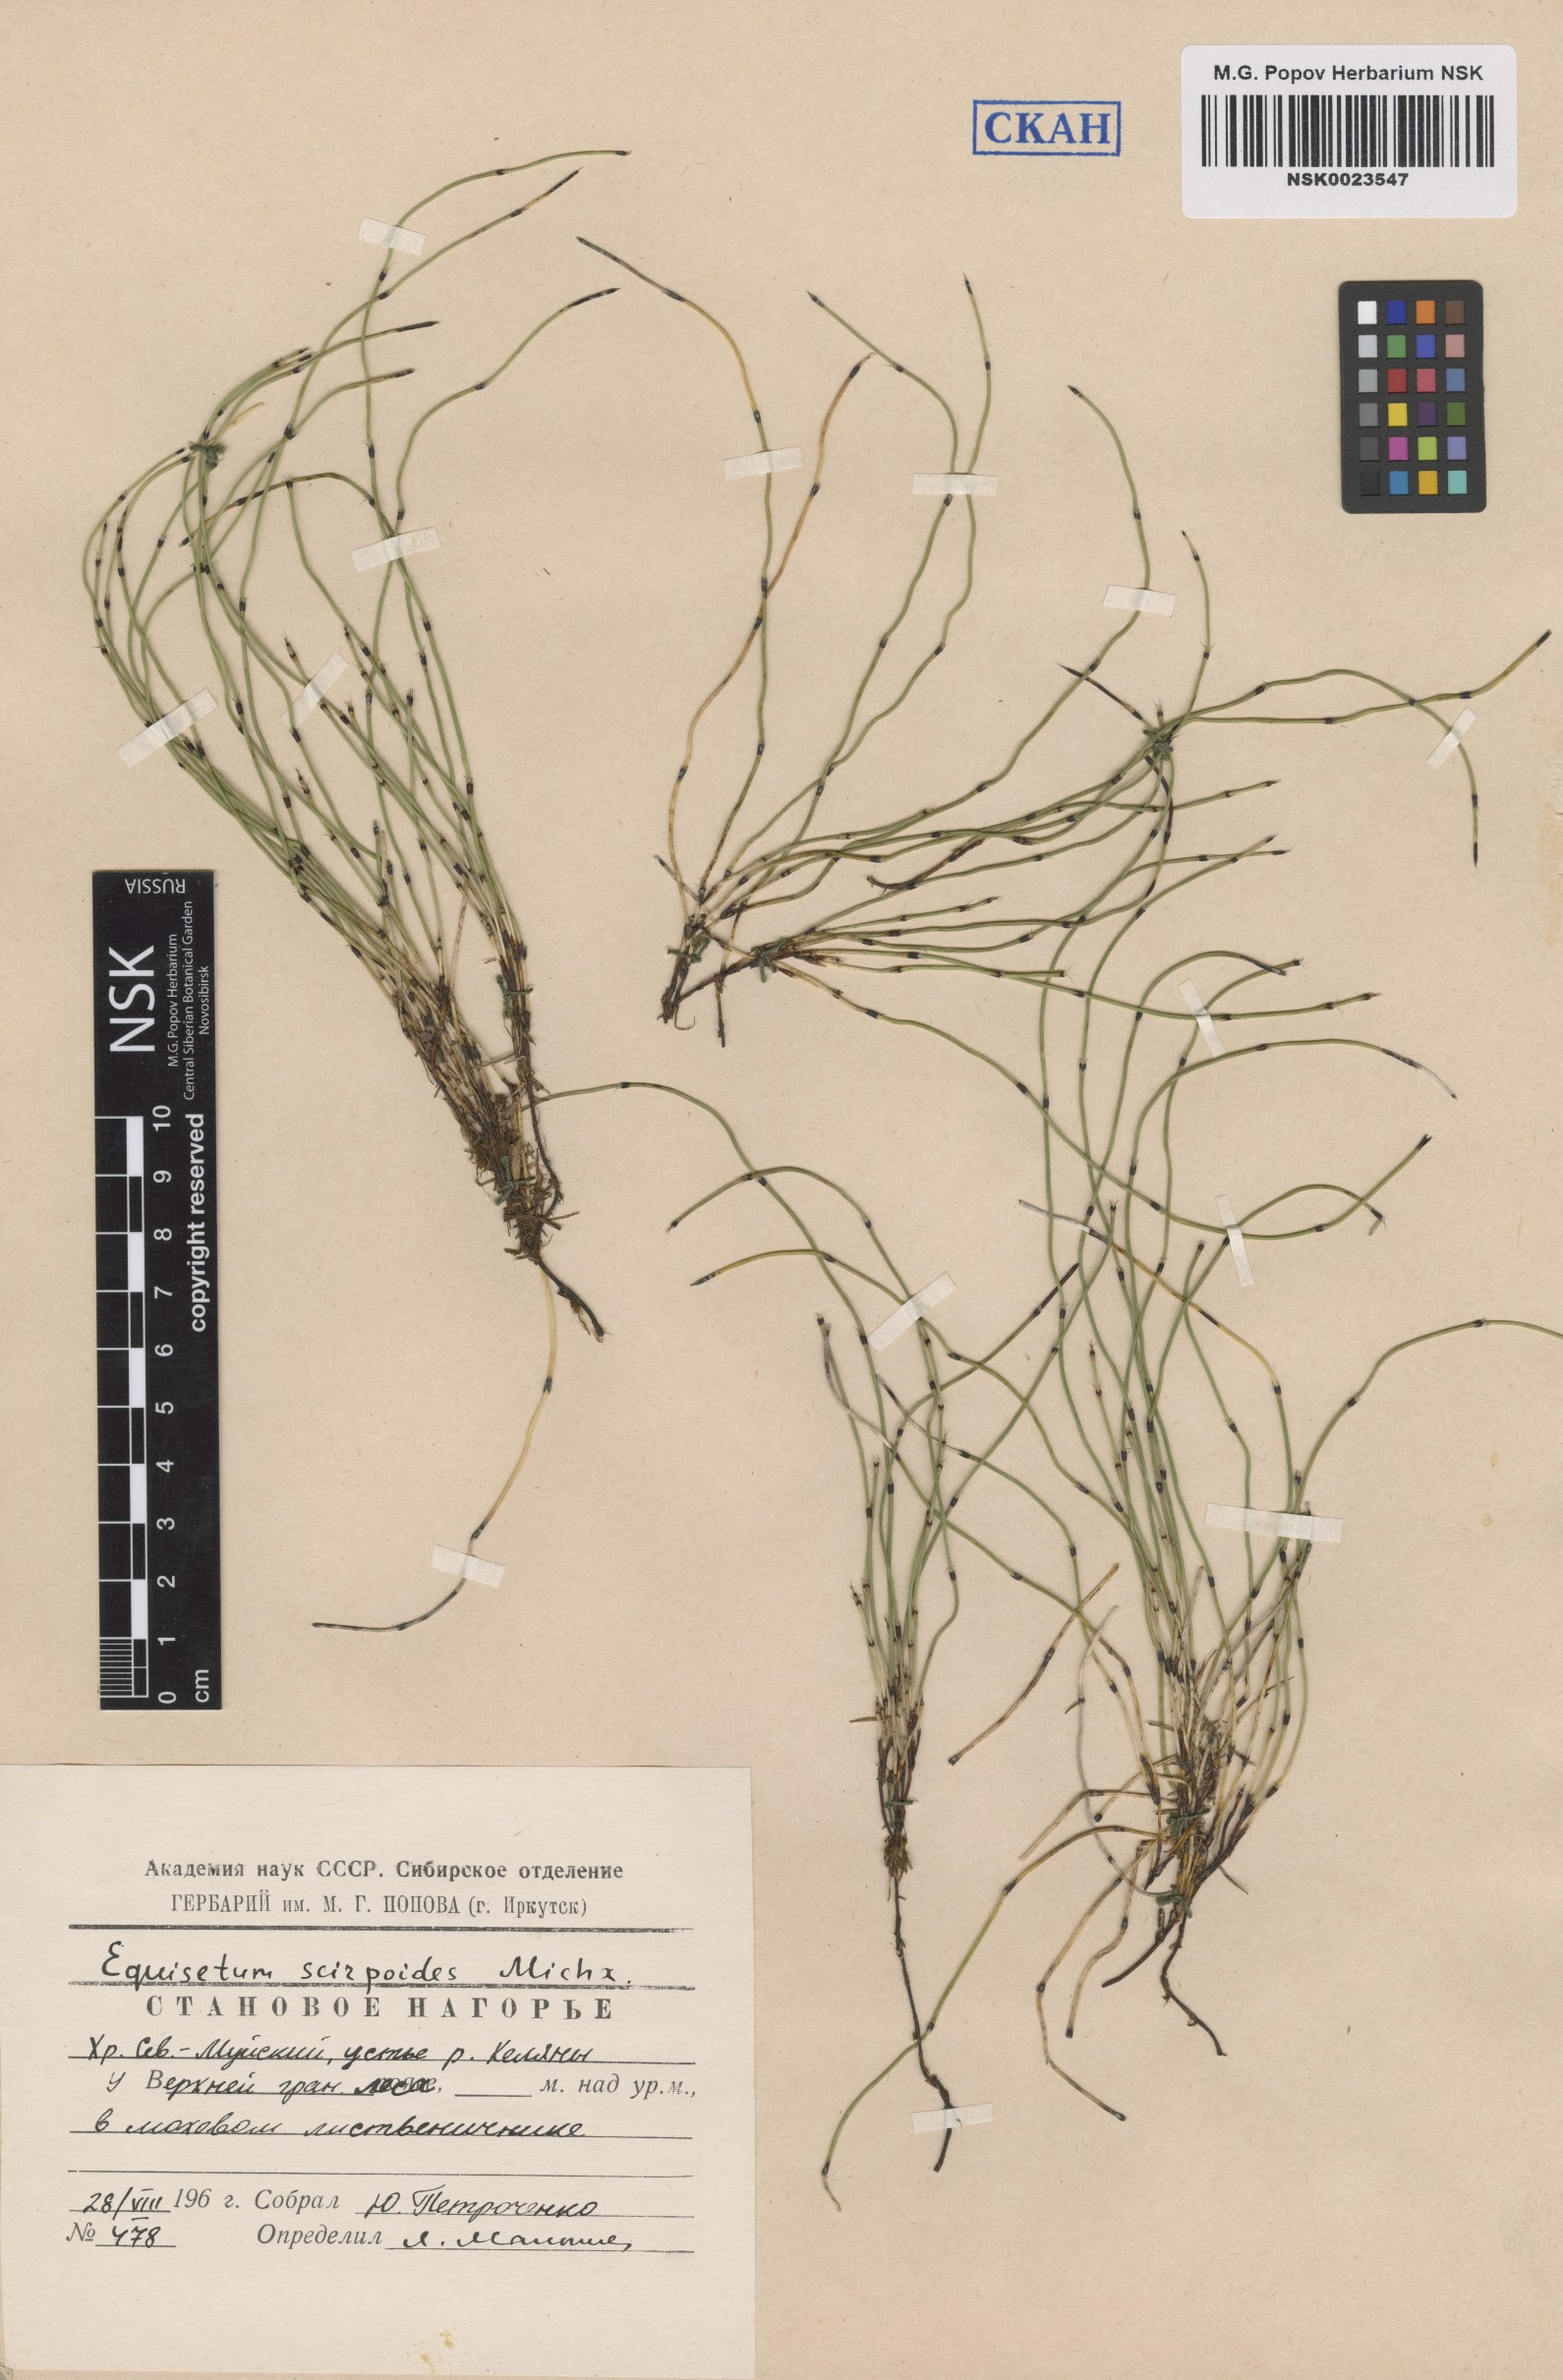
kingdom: Plantae
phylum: Tracheophyta
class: Polypodiopsida
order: Equisetales
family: Equisetaceae
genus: Equisetum
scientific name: Equisetum scirpoides
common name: Delicate horsetail
